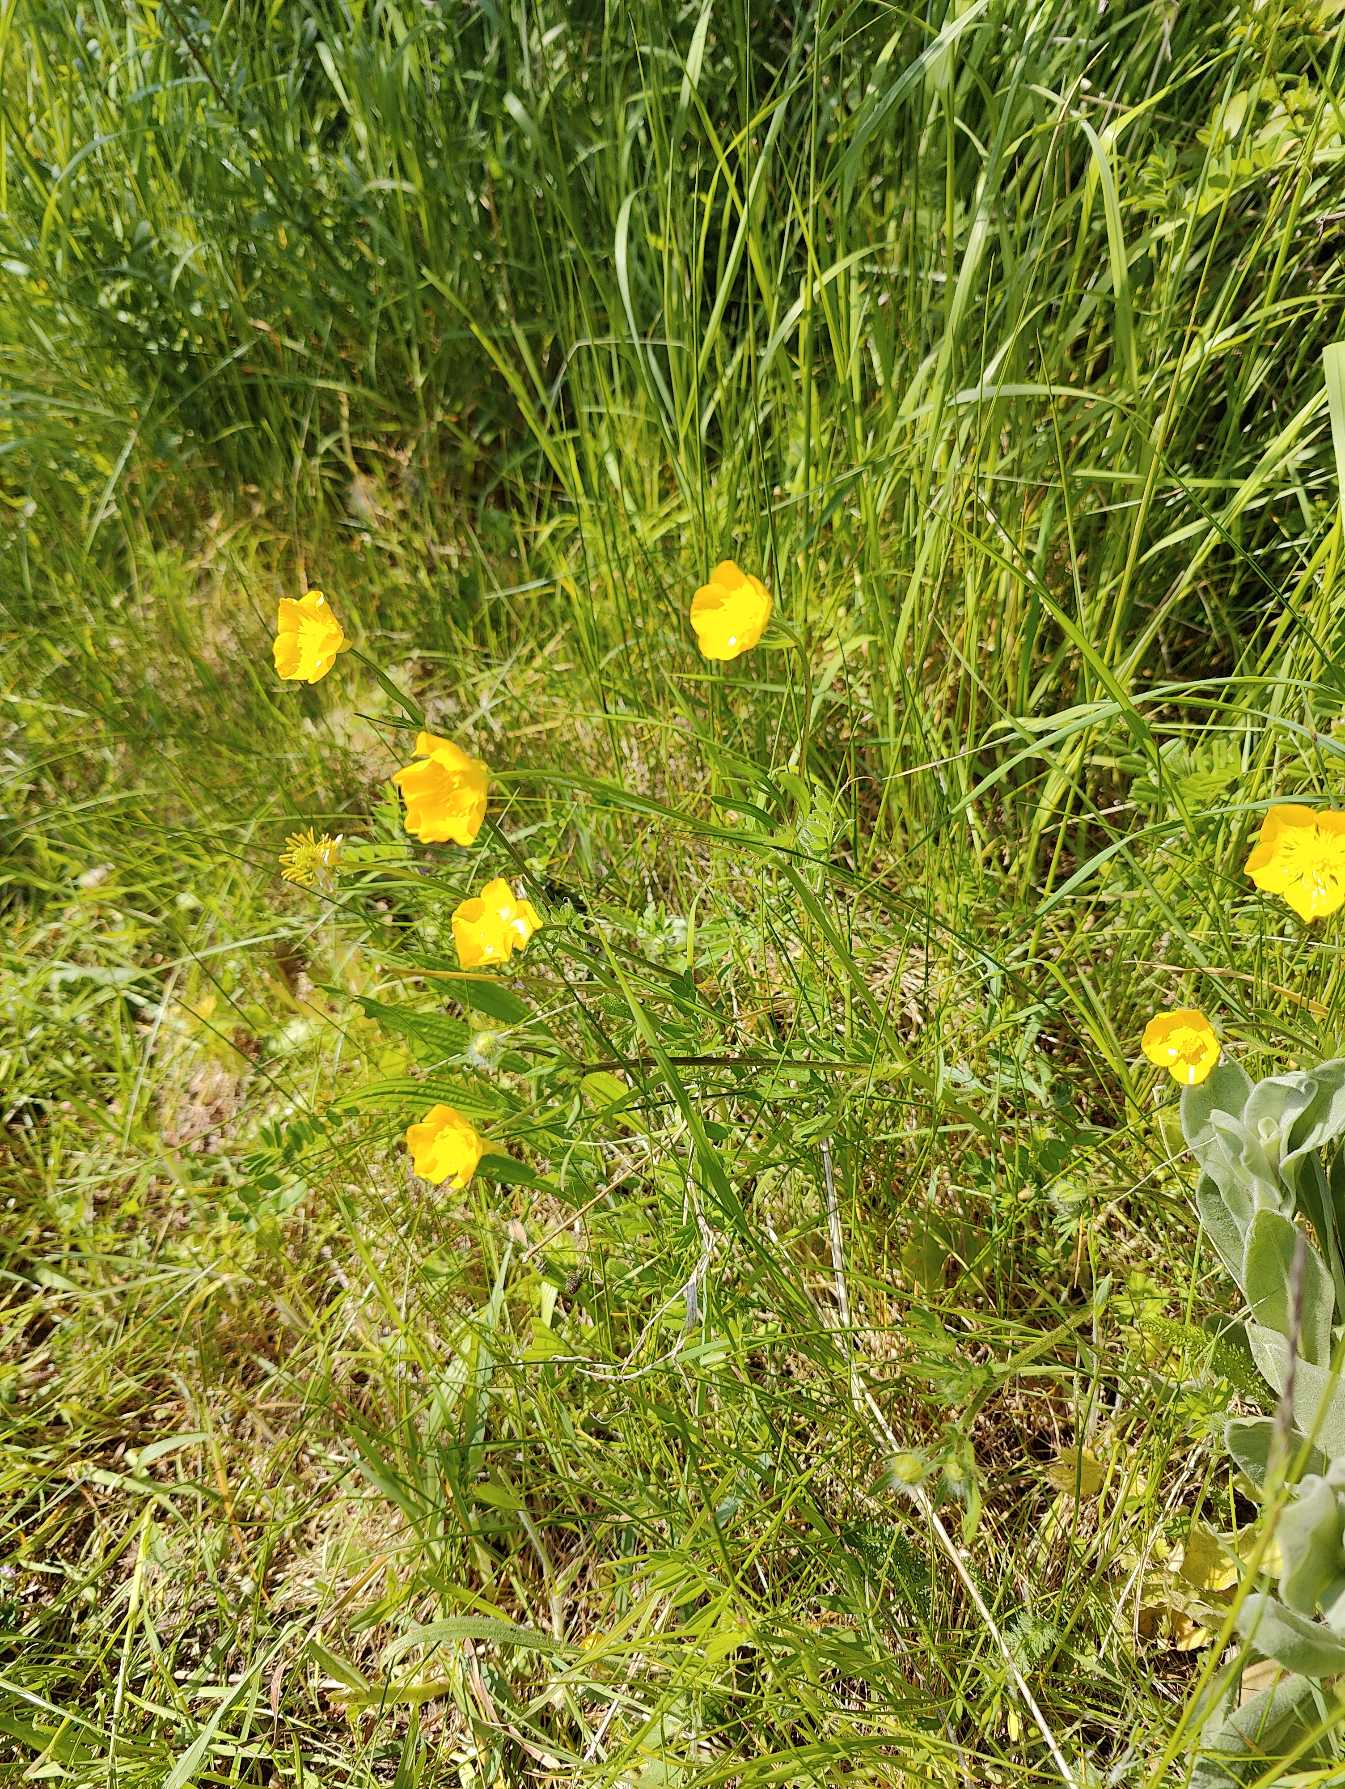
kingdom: Plantae
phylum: Tracheophyta
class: Magnoliopsida
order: Ranunculales
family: Ranunculaceae
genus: Ranunculus
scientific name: Ranunculus acris
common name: Bidende ranunkel
